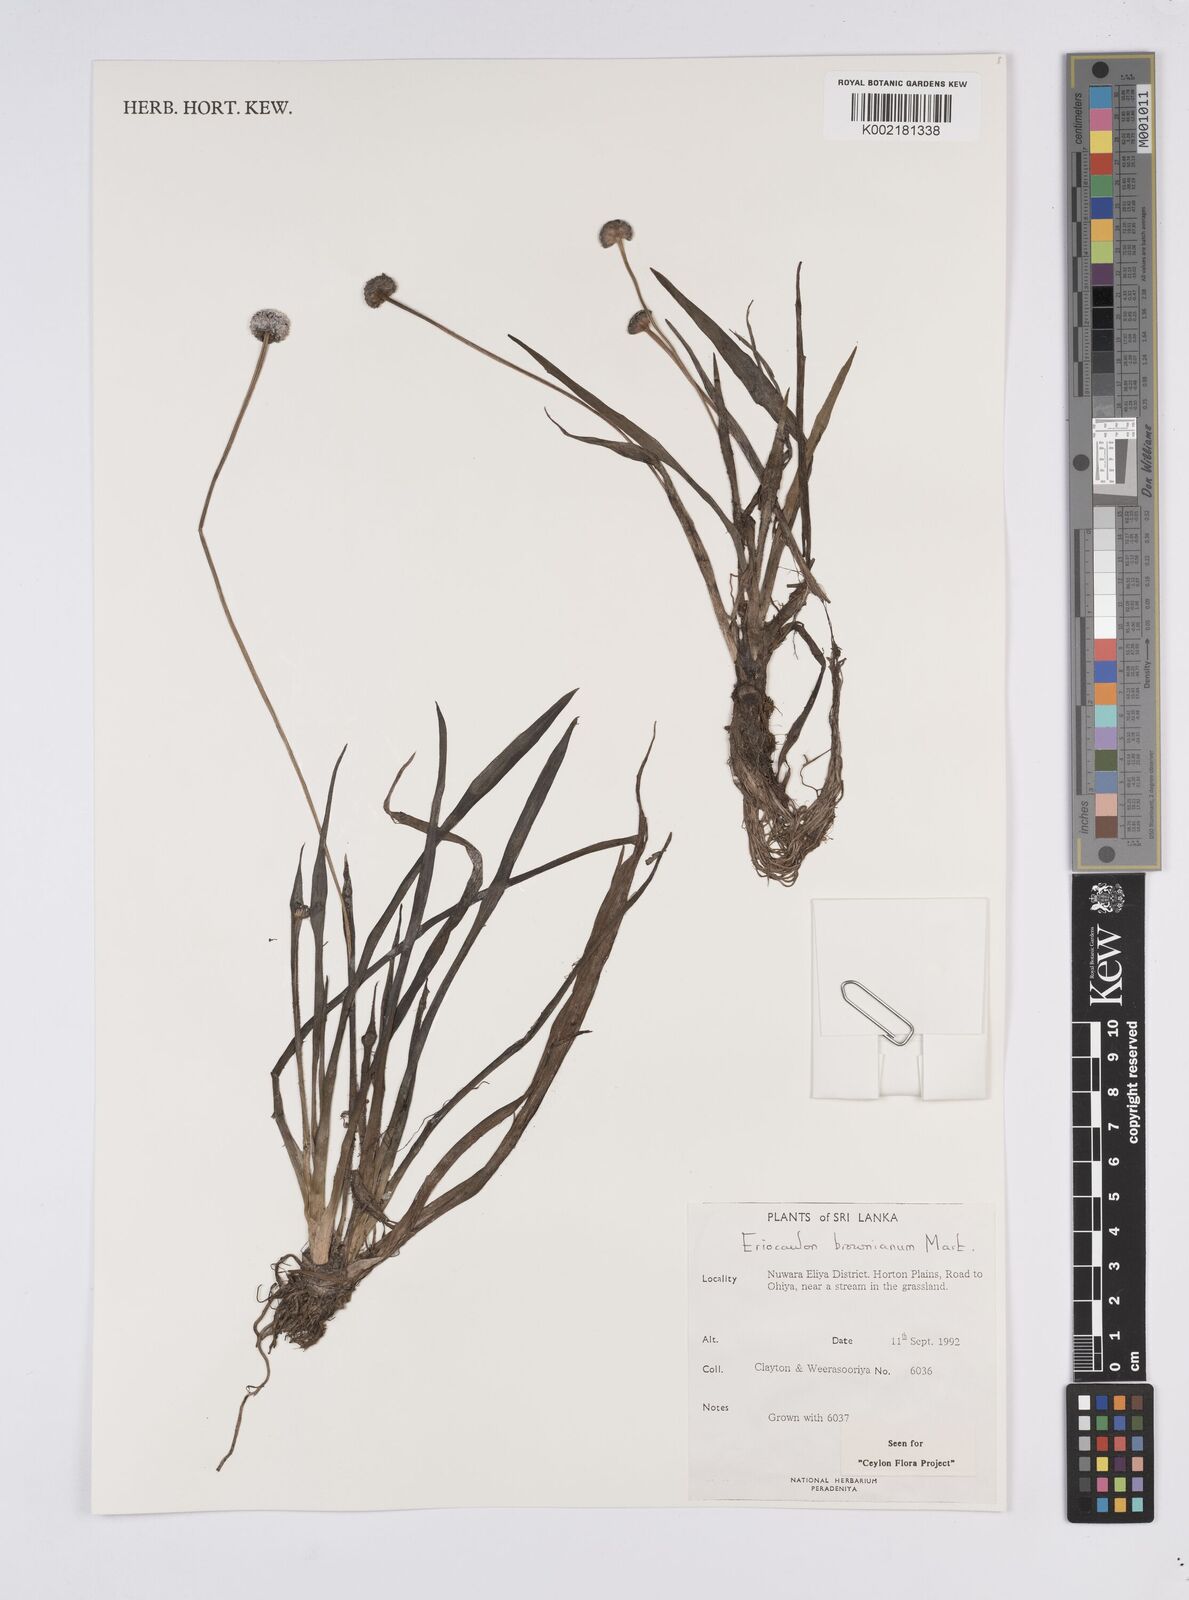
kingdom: Plantae
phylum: Tracheophyta
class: Liliopsida
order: Poales
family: Eriocaulaceae
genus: Eriocaulon
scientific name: Eriocaulon brownianum
